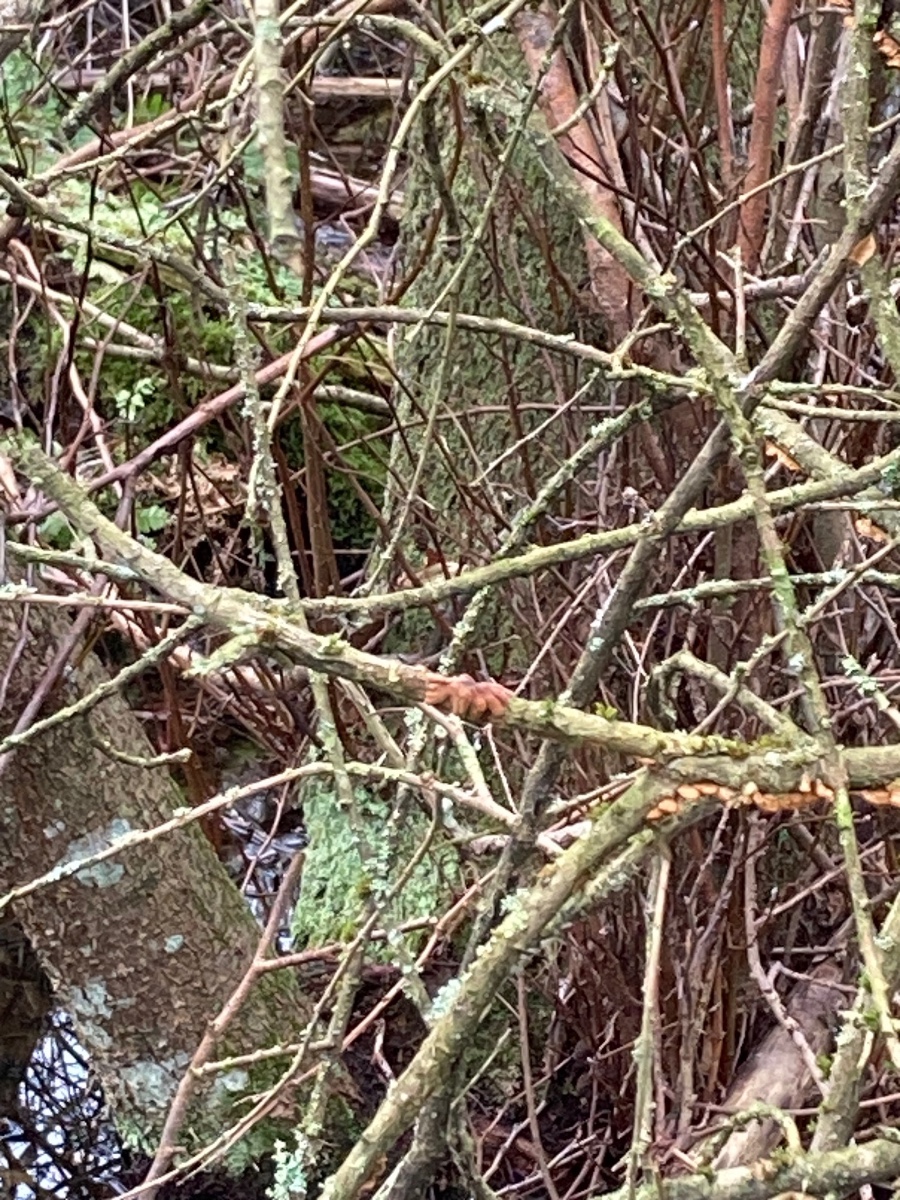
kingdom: Fungi
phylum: Ascomycota
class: Sordariomycetes
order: Hypocreales
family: Hypocreaceae
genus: Hypocreopsis
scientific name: Hypocreopsis lichenoides
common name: pilfinger
